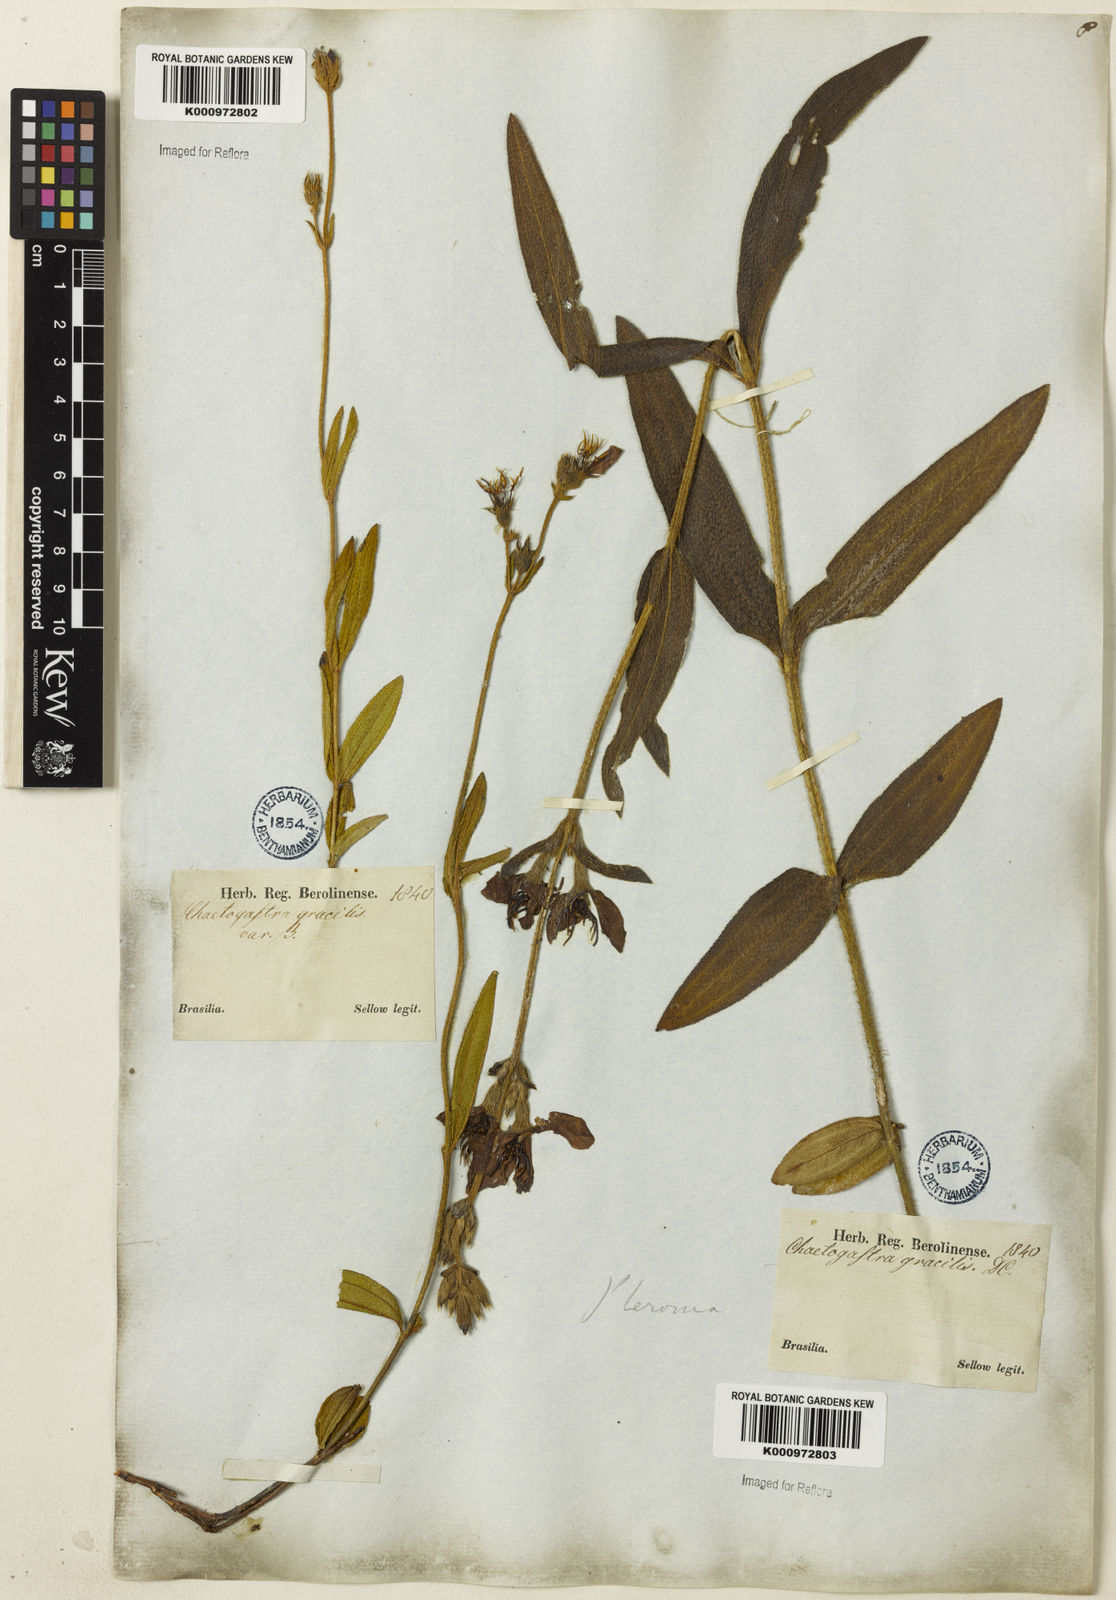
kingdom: Plantae
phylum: Tracheophyta
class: Magnoliopsida
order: Myrtales
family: Melastomataceae
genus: Chaetogastra
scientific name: Chaetogastra gracilis
